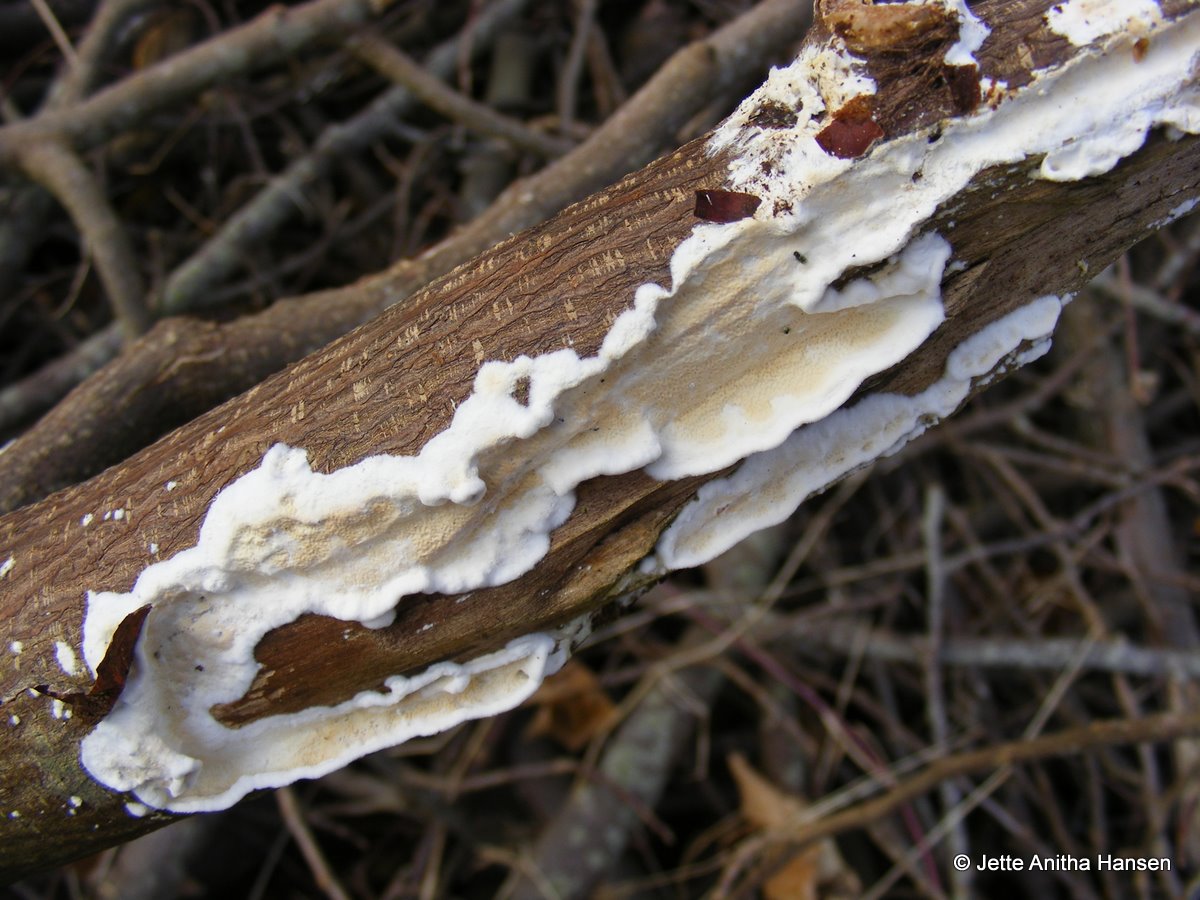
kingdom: Fungi
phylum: Basidiomycota
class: Agaricomycetes
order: Polyporales
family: Irpicaceae
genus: Byssomerulius
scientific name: Byssomerulius corium
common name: læder-åresvamp
